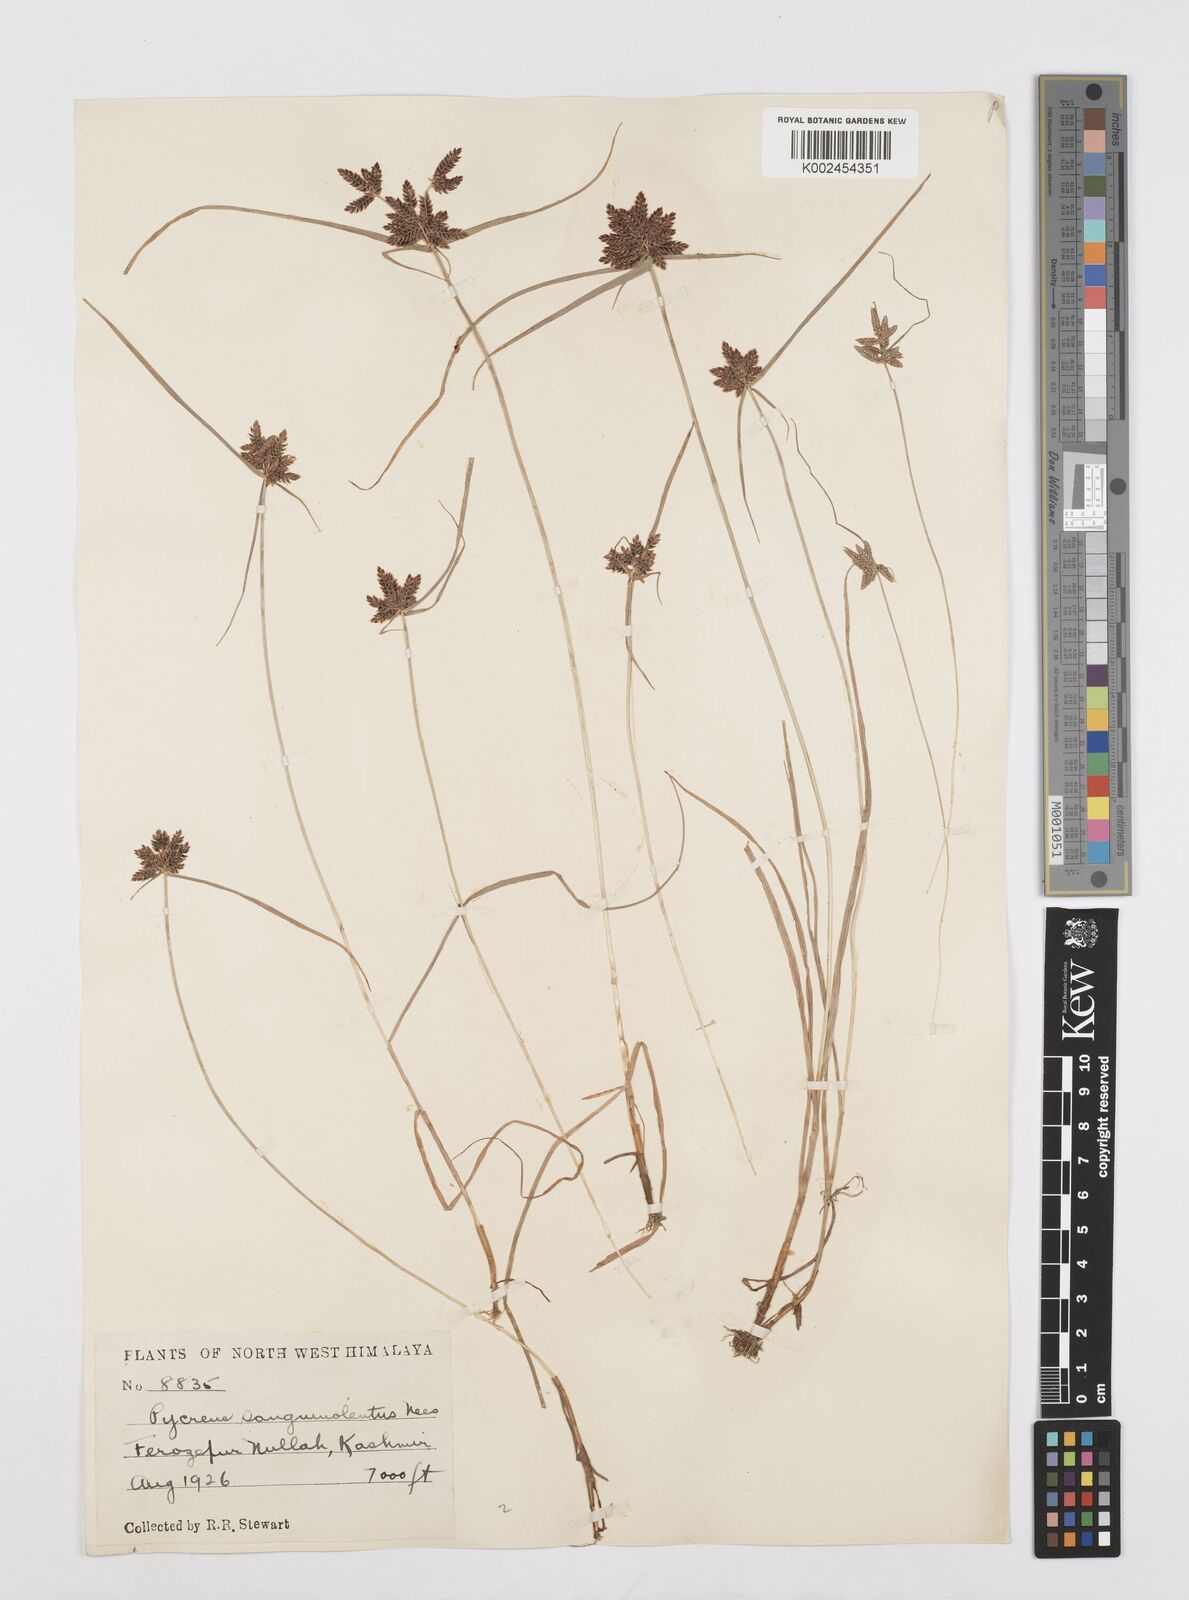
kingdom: Plantae
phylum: Tracheophyta
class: Liliopsida
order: Poales
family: Cyperaceae
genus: Cyperus
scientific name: Cyperus sanguinolentus
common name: Purpleglume flatsedge
